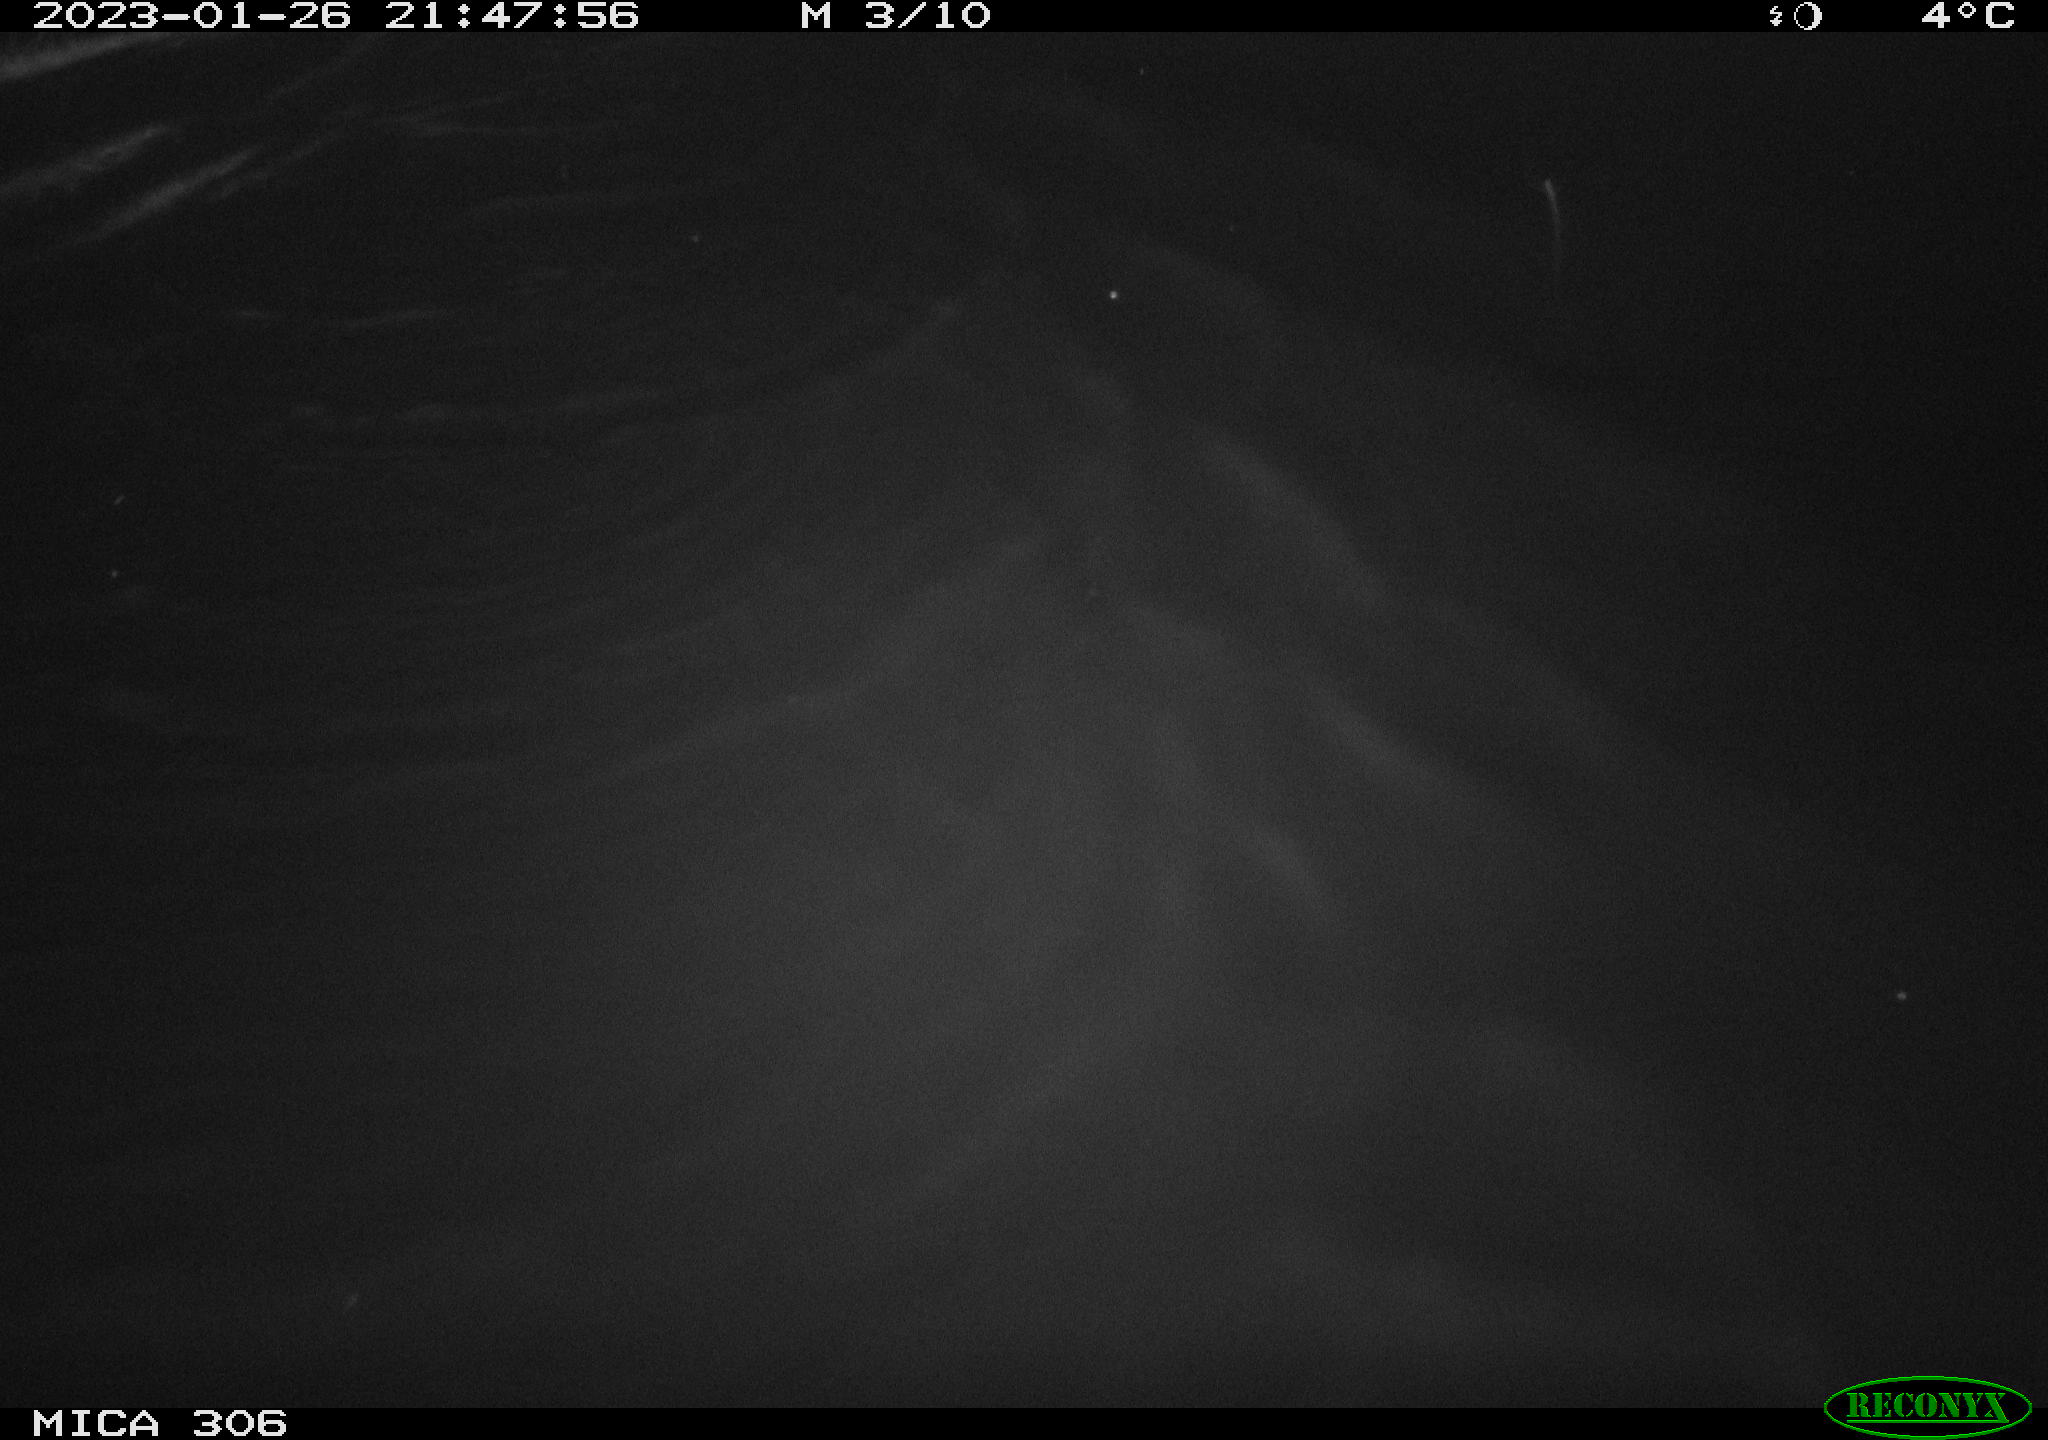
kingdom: Animalia
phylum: Chordata
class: Mammalia
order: Rodentia
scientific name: Rodentia
